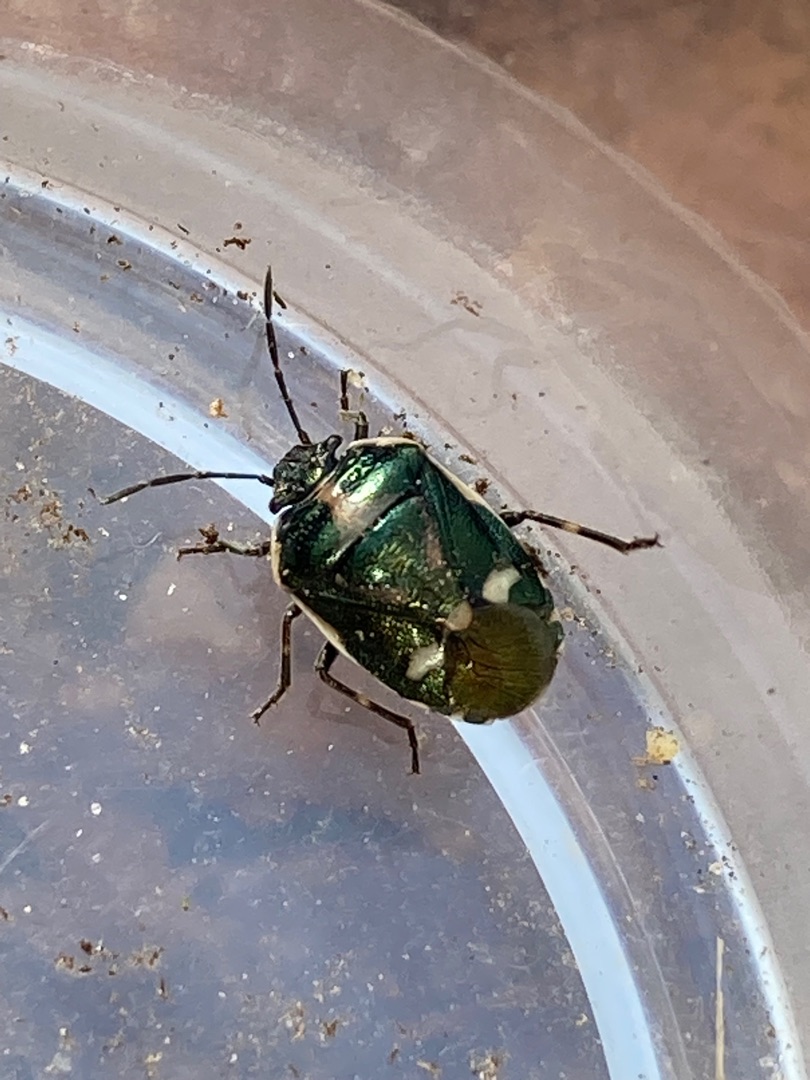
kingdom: Animalia
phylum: Arthropoda
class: Insecta
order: Hemiptera
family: Pentatomidae
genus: Eurydema
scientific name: Eurydema oleracea
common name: Almindelig kåltæge
